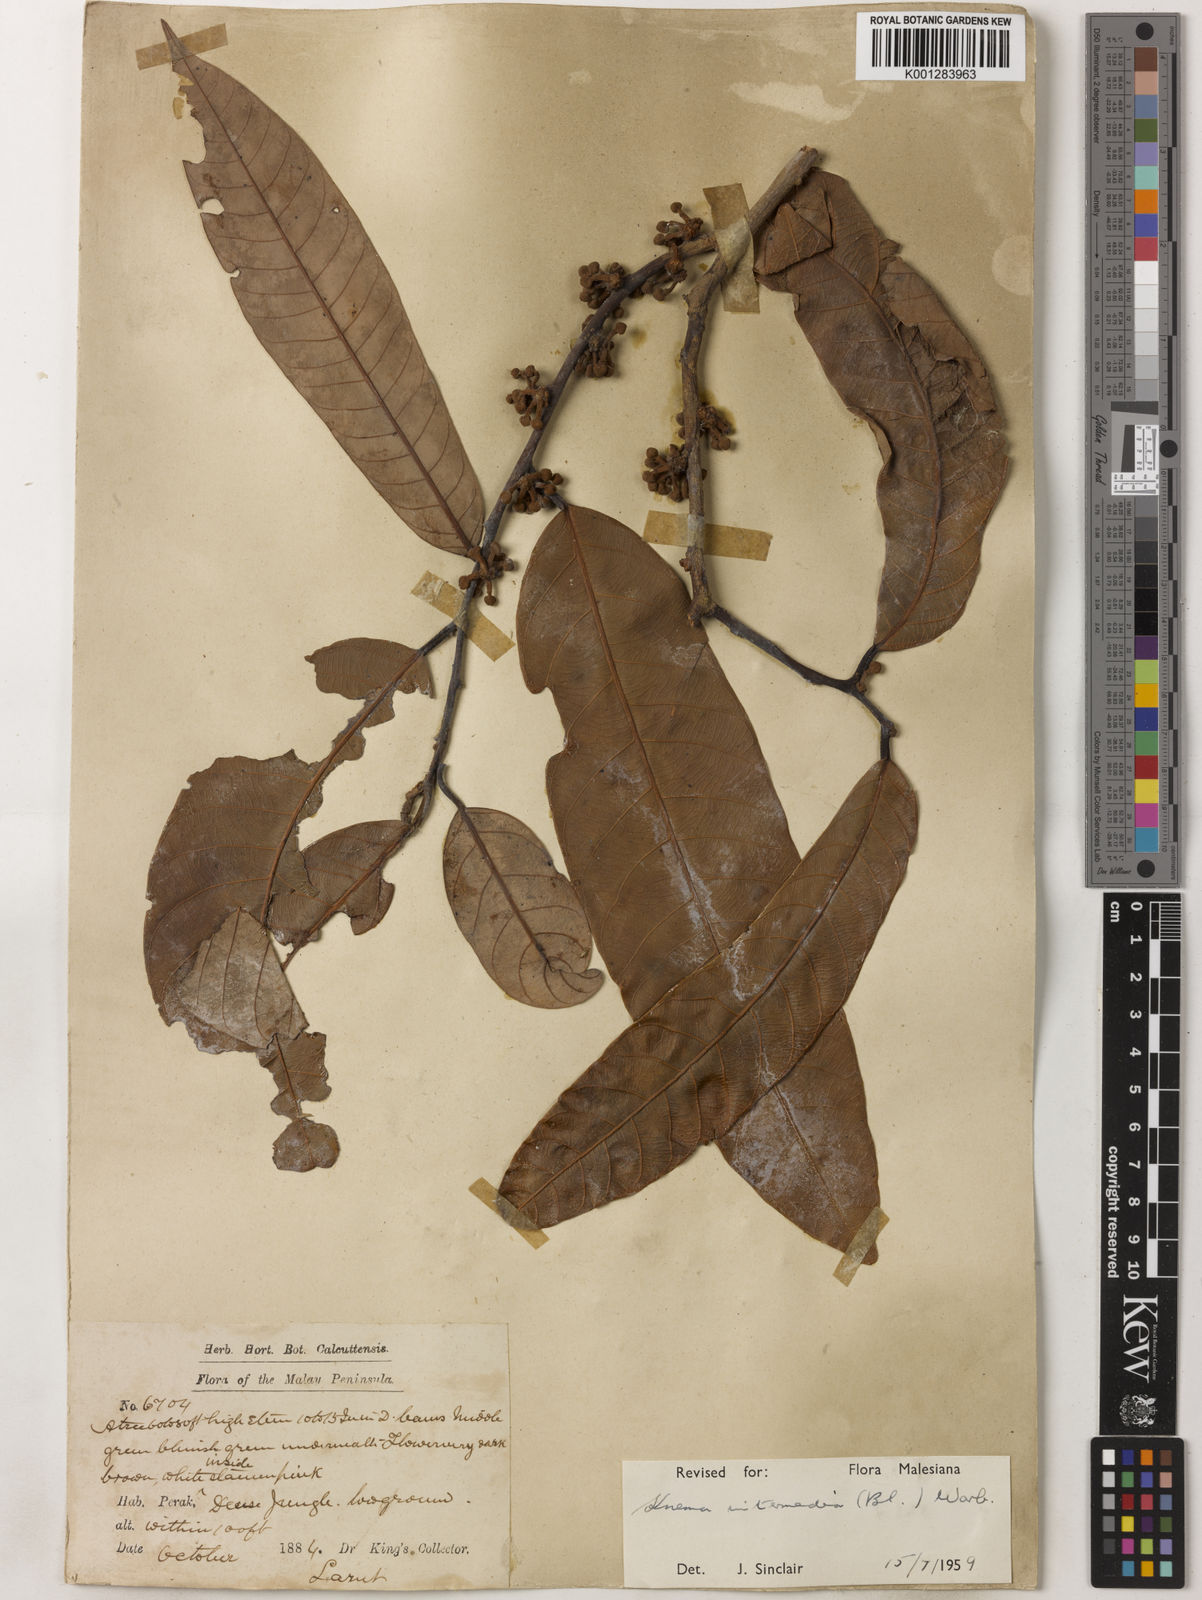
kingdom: Plantae
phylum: Tracheophyta
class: Magnoliopsida
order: Magnoliales
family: Myristicaceae
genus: Knema
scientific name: Knema intermedia
